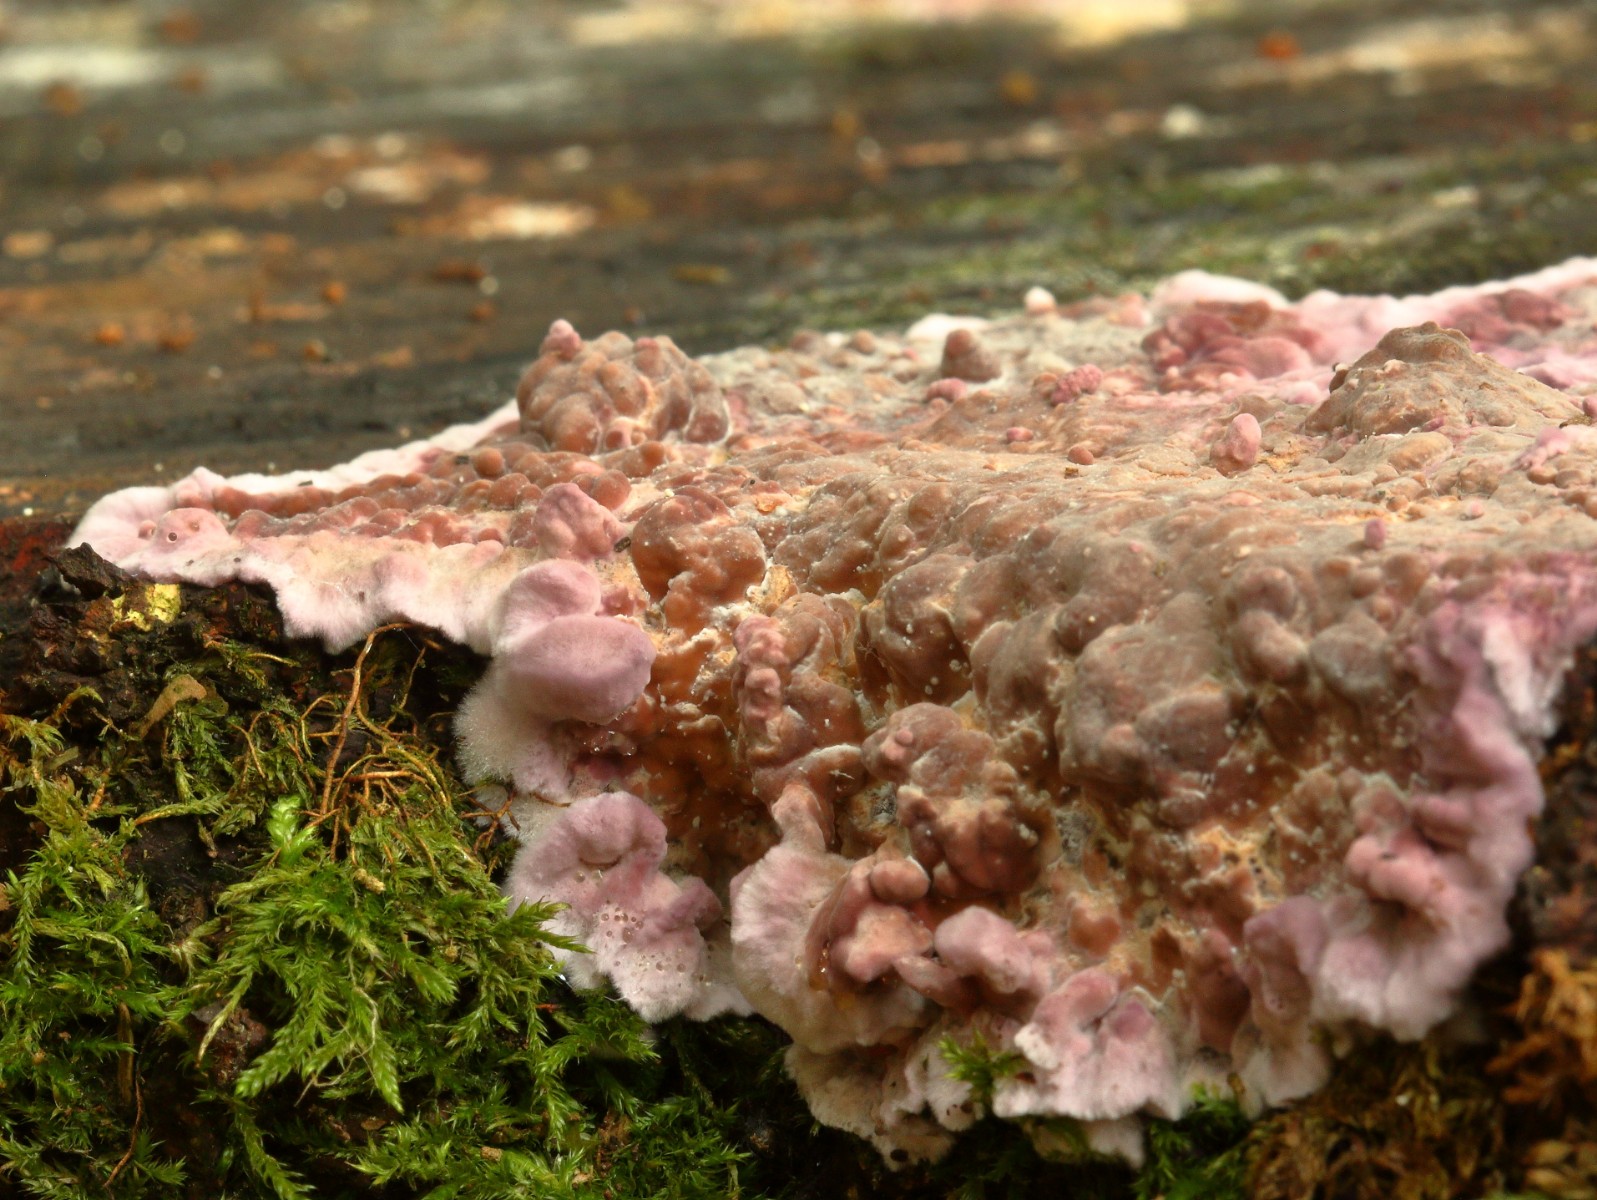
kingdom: Fungi
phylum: Basidiomycota
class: Agaricomycetes
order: Agaricales
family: Cyphellaceae
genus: Chondrostereum
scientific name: Chondrostereum purpureum
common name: purpurlædersvamp
